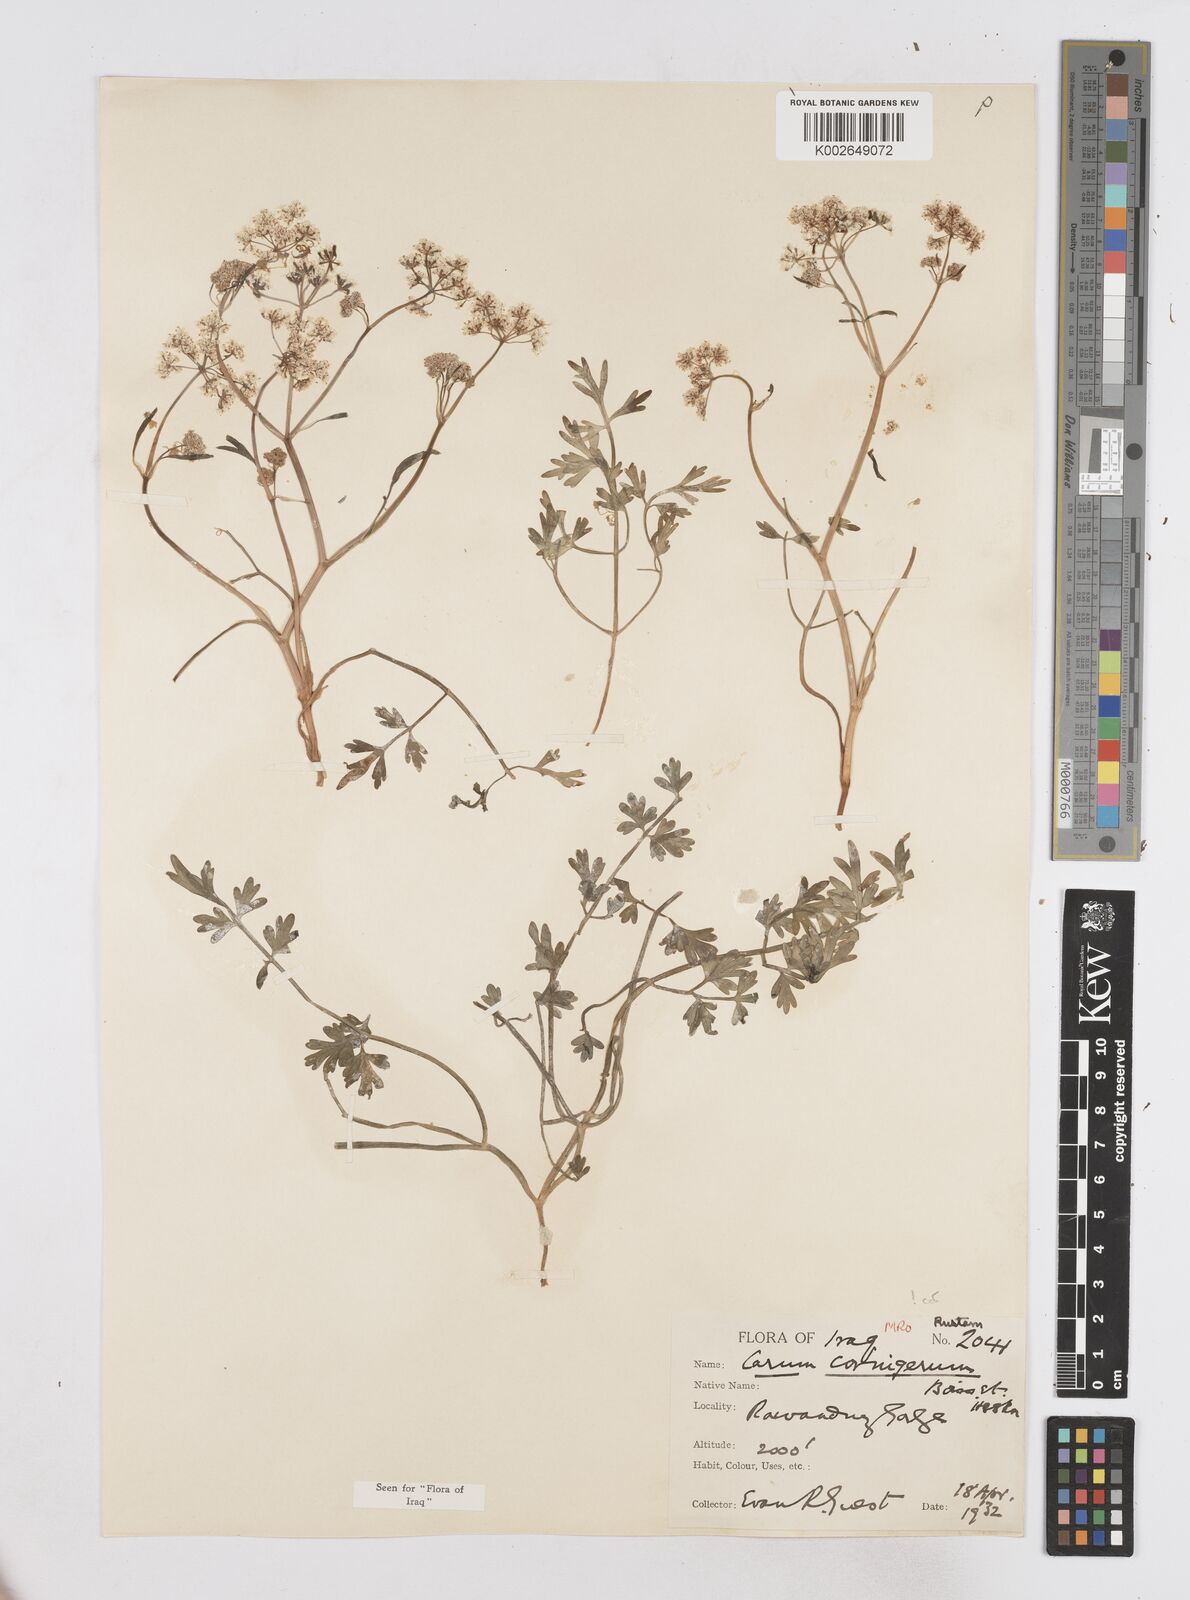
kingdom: Plantae
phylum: Tracheophyta
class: Magnoliopsida
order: Apiales
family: Apiaceae
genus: Bunium
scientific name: Bunium cornigerum
